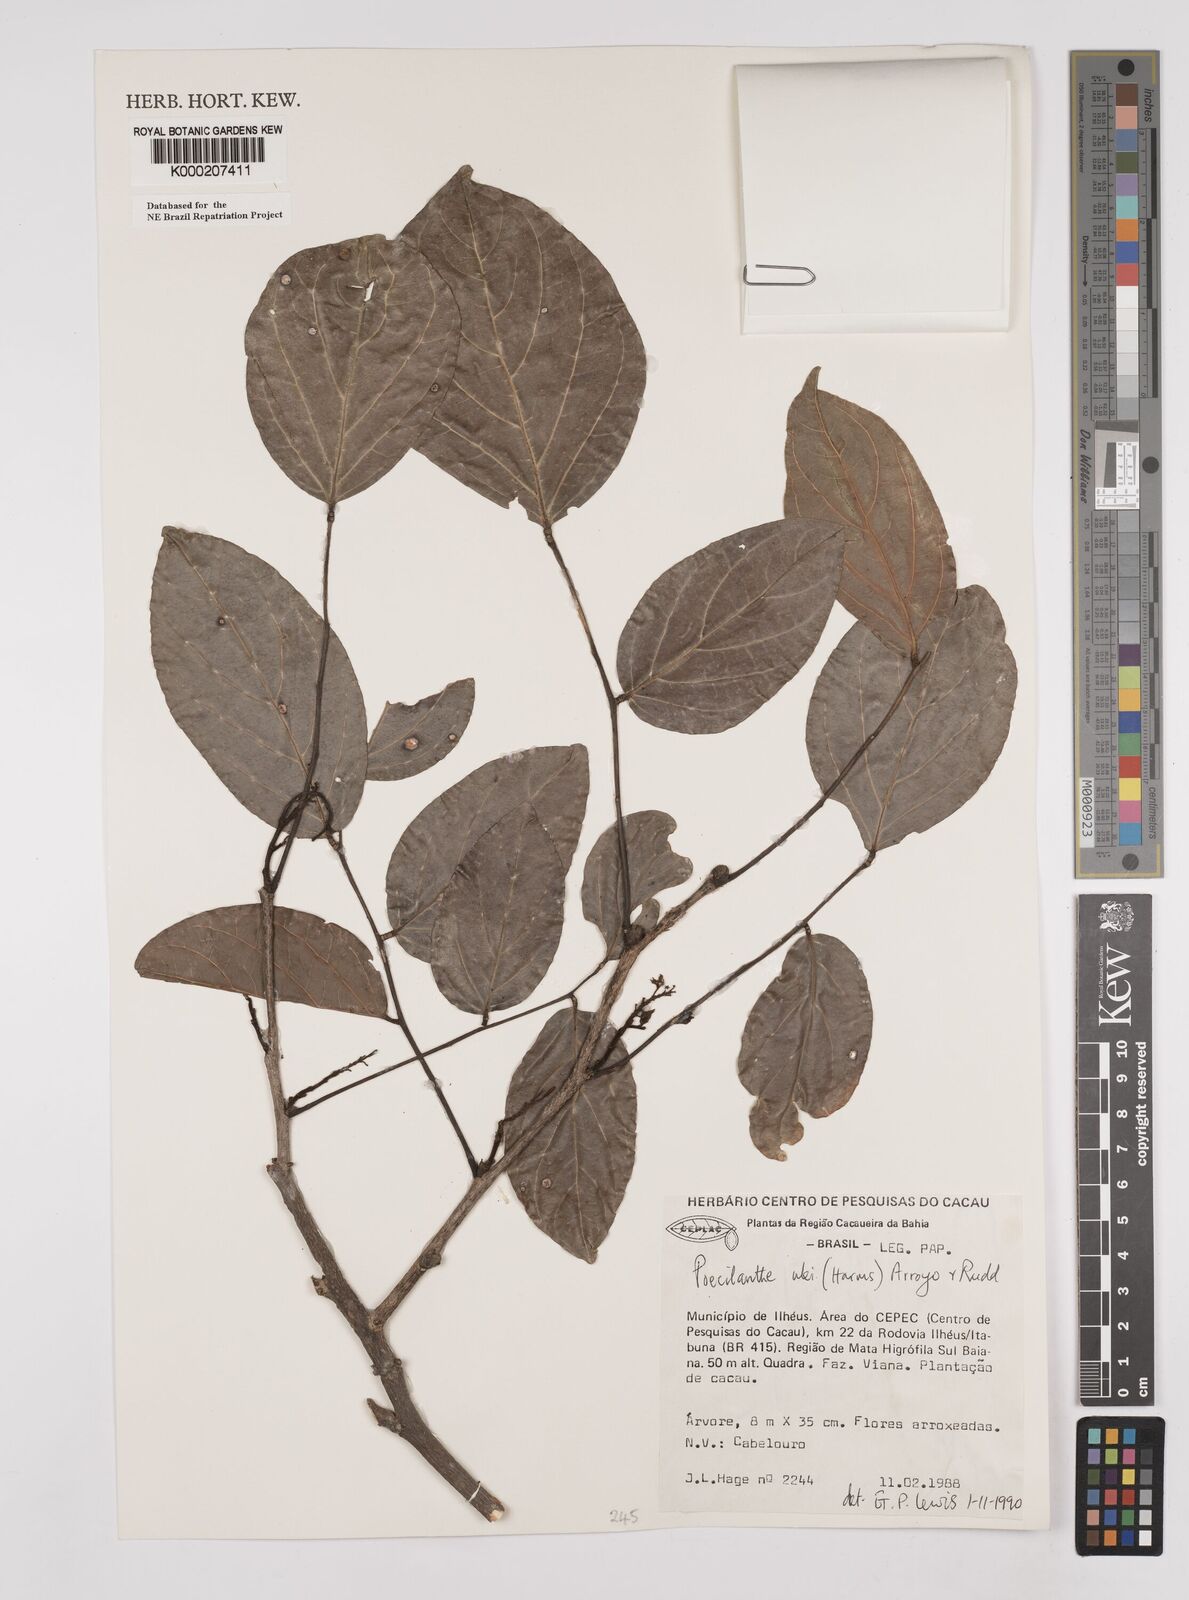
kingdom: Plantae
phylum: Tracheophyta
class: Magnoliopsida
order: Fabales
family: Fabaceae
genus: Poecilanthe
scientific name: Poecilanthe ulei
